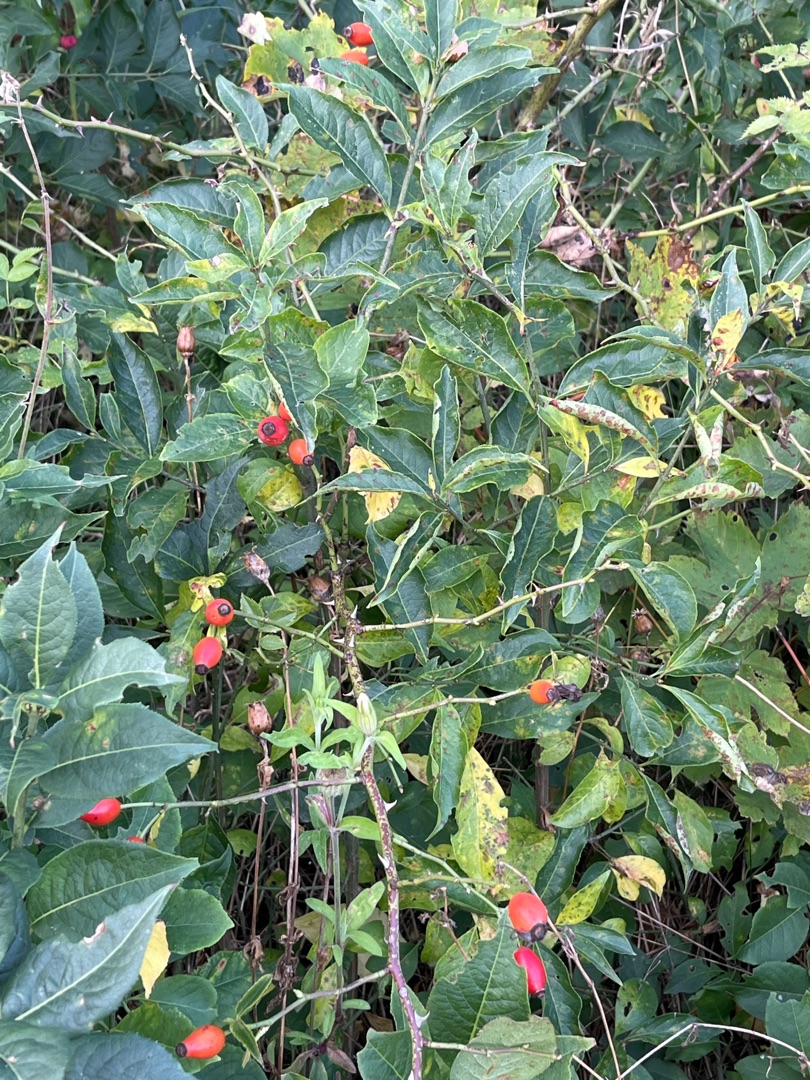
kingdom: Plantae
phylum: Tracheophyta
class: Magnoliopsida
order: Rosales
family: Rosaceae
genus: Rosa
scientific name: Rosa
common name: Roseslægten
